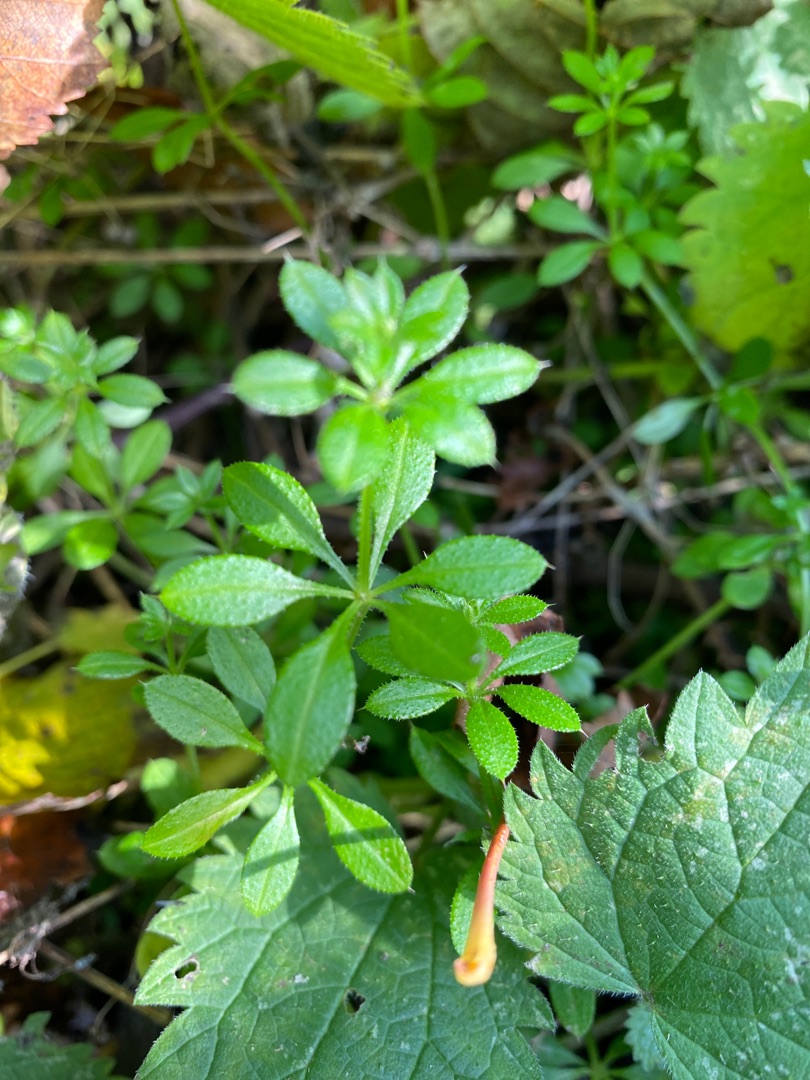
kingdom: Plantae
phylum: Tracheophyta
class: Magnoliopsida
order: Gentianales
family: Rubiaceae
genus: Galium
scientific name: Galium aparine
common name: Burre-snerre
